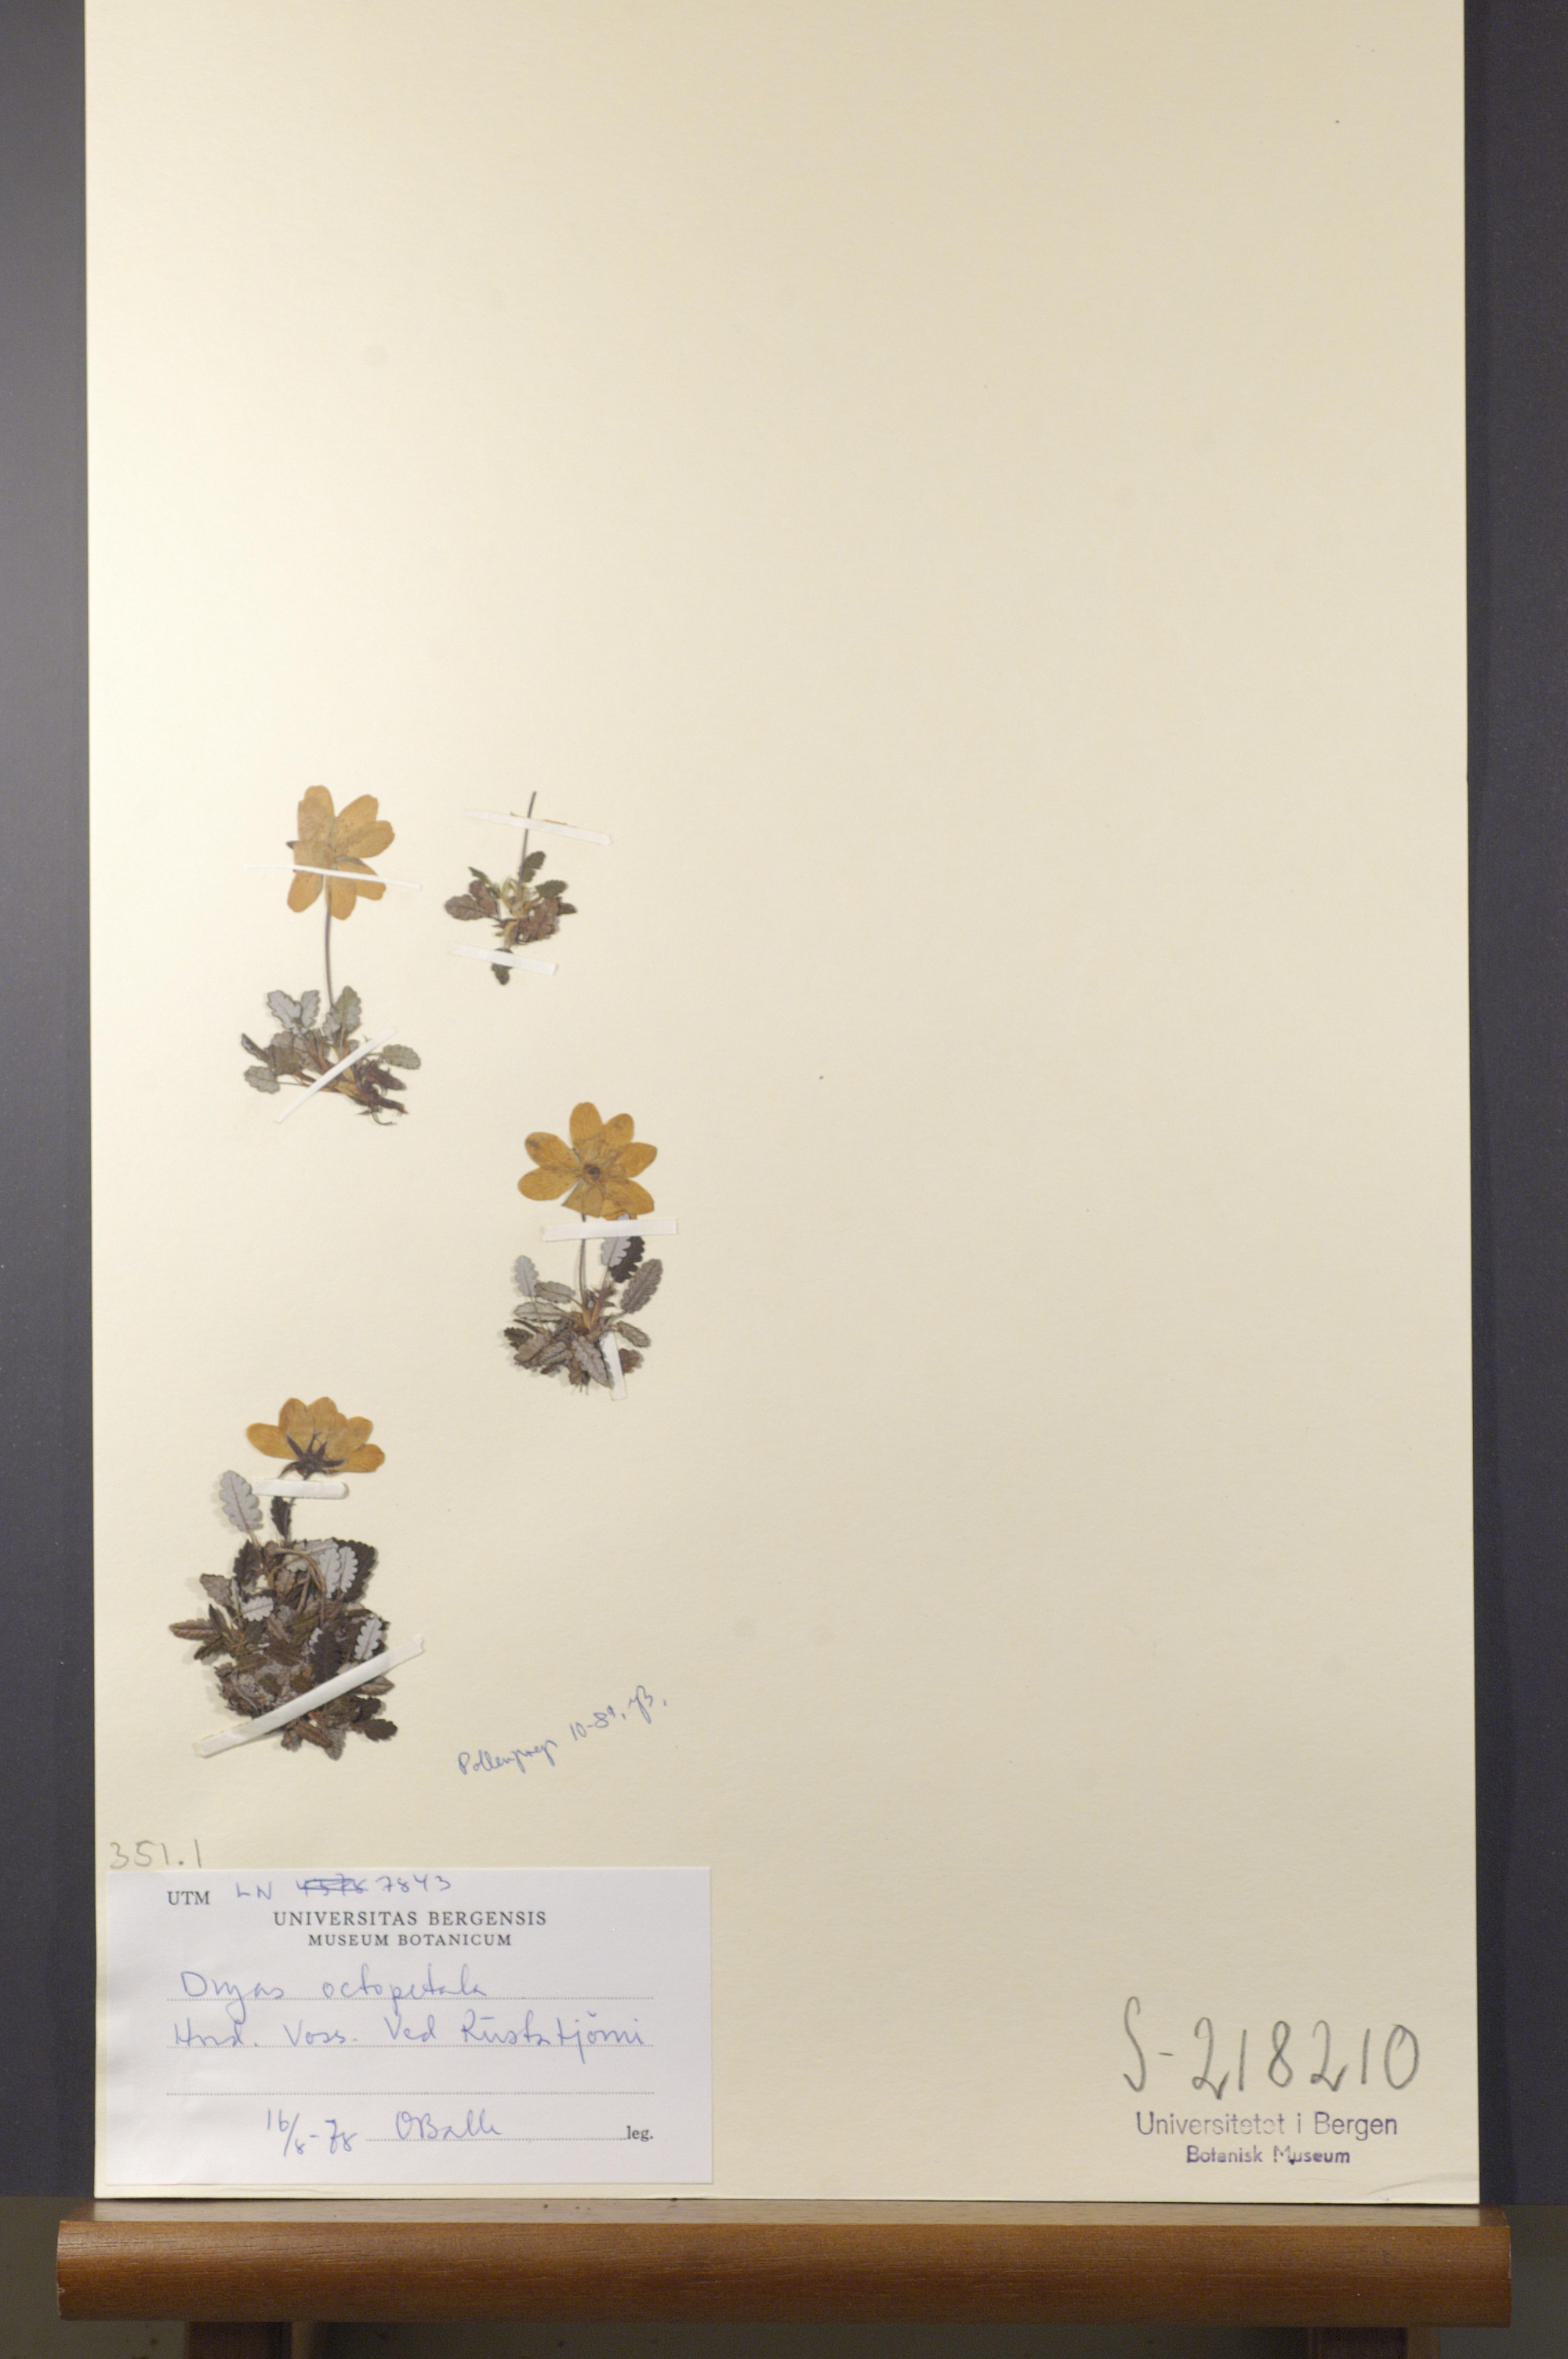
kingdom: Plantae
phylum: Tracheophyta
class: Magnoliopsida
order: Rosales
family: Rosaceae
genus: Dryas
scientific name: Dryas octopetala
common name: Eight-petal mountain-avens
